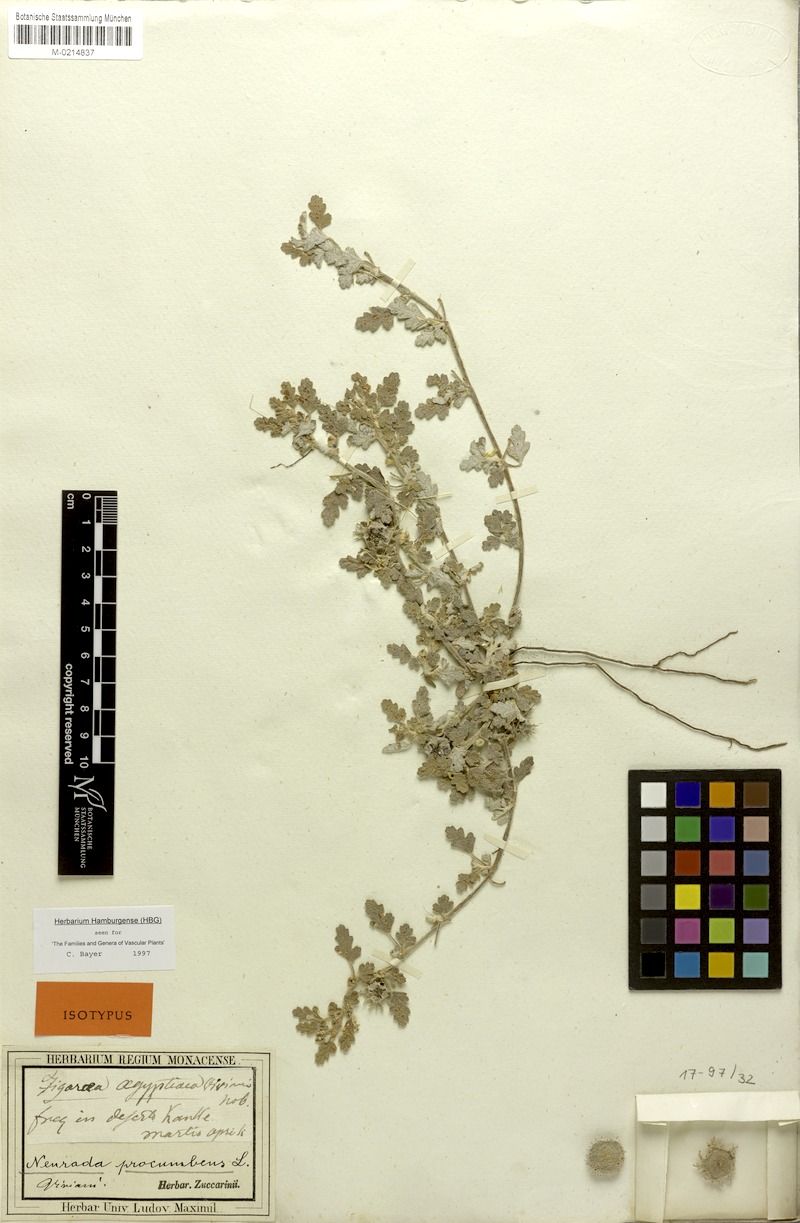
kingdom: Plantae
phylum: Tracheophyta
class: Magnoliopsida
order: Malvales
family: Neuradaceae
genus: Neurada
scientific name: Neurada procumbens
